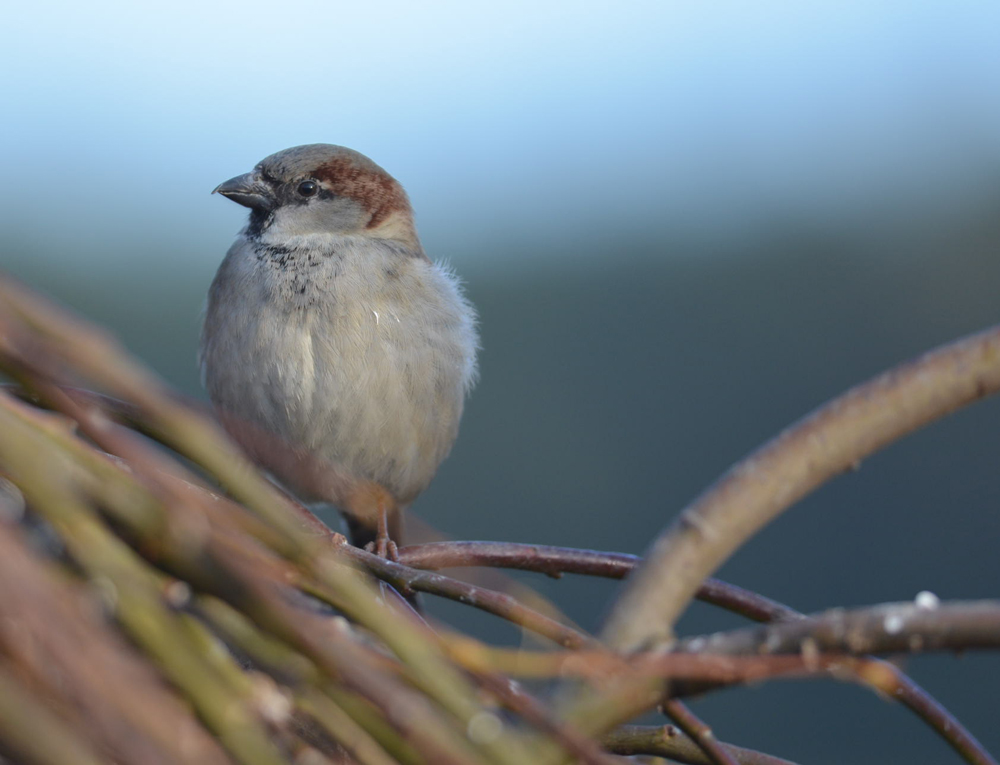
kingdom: Animalia
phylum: Chordata
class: Aves
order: Passeriformes
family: Passeridae
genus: Passer
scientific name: Passer domesticus
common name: House sparrow
